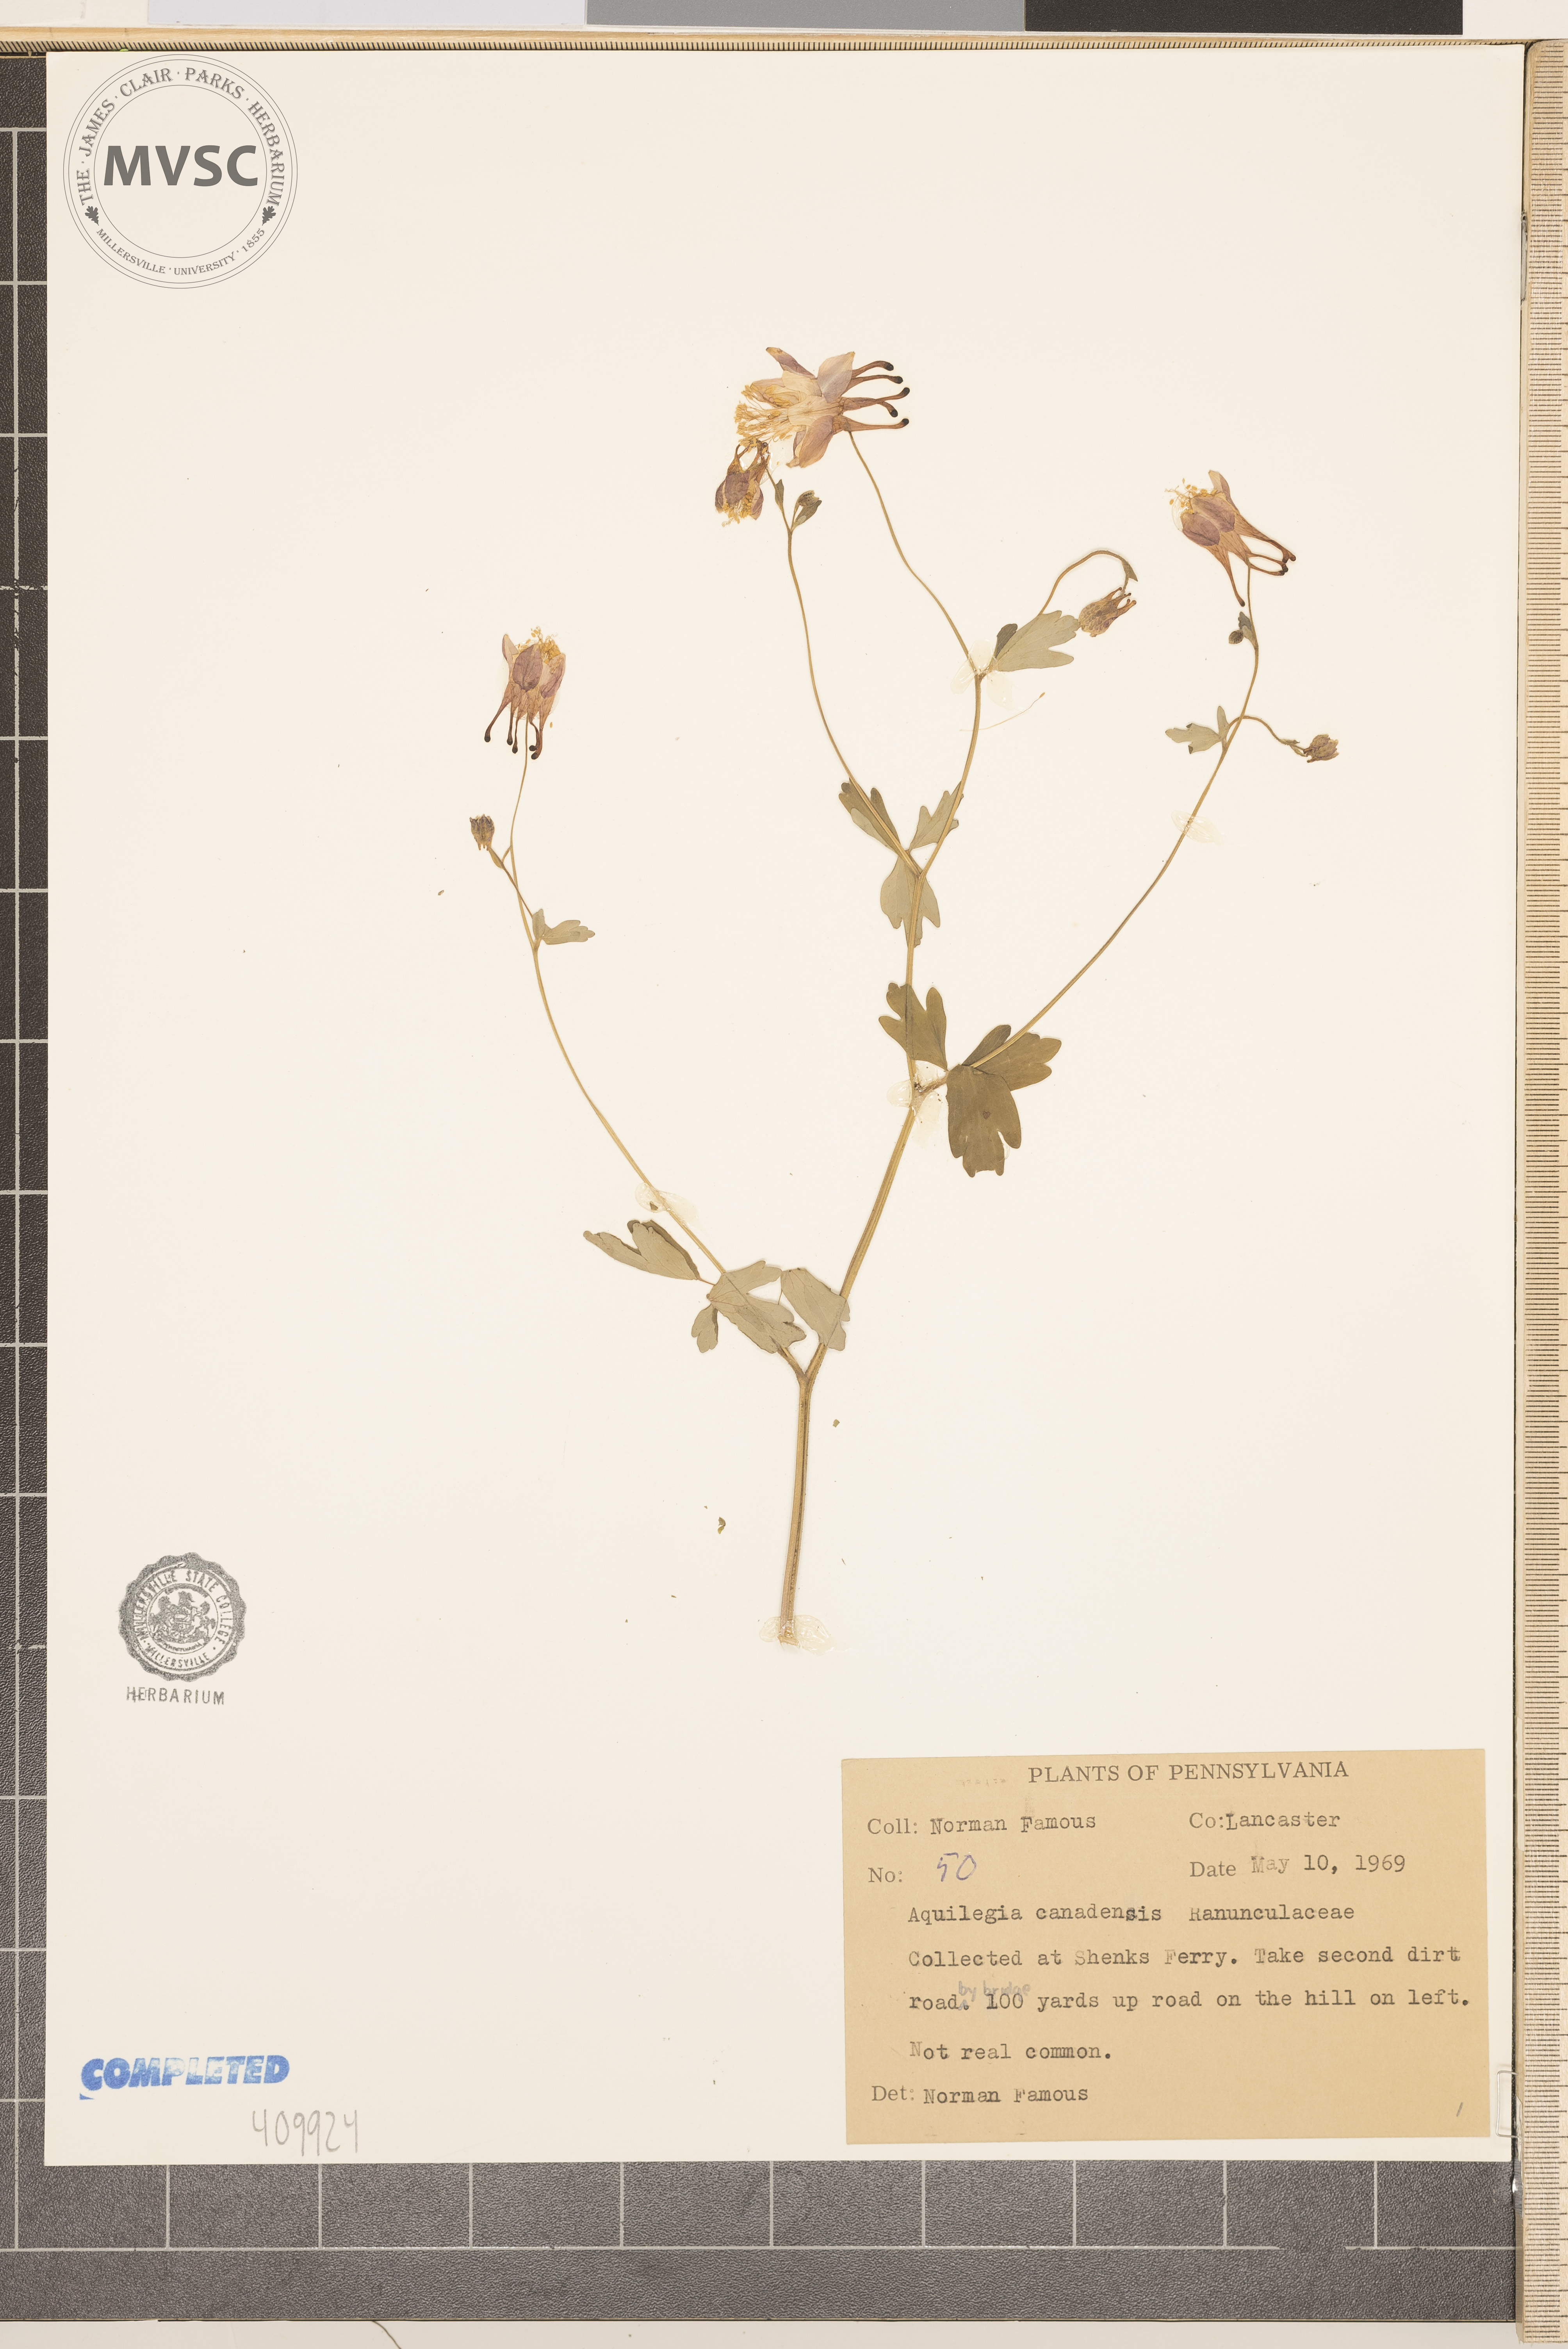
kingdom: Plantae
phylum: Tracheophyta
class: Magnoliopsida
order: Ranunculales
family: Ranunculaceae
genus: Aquilegia
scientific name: Aquilegia canadensis
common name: American columbine
